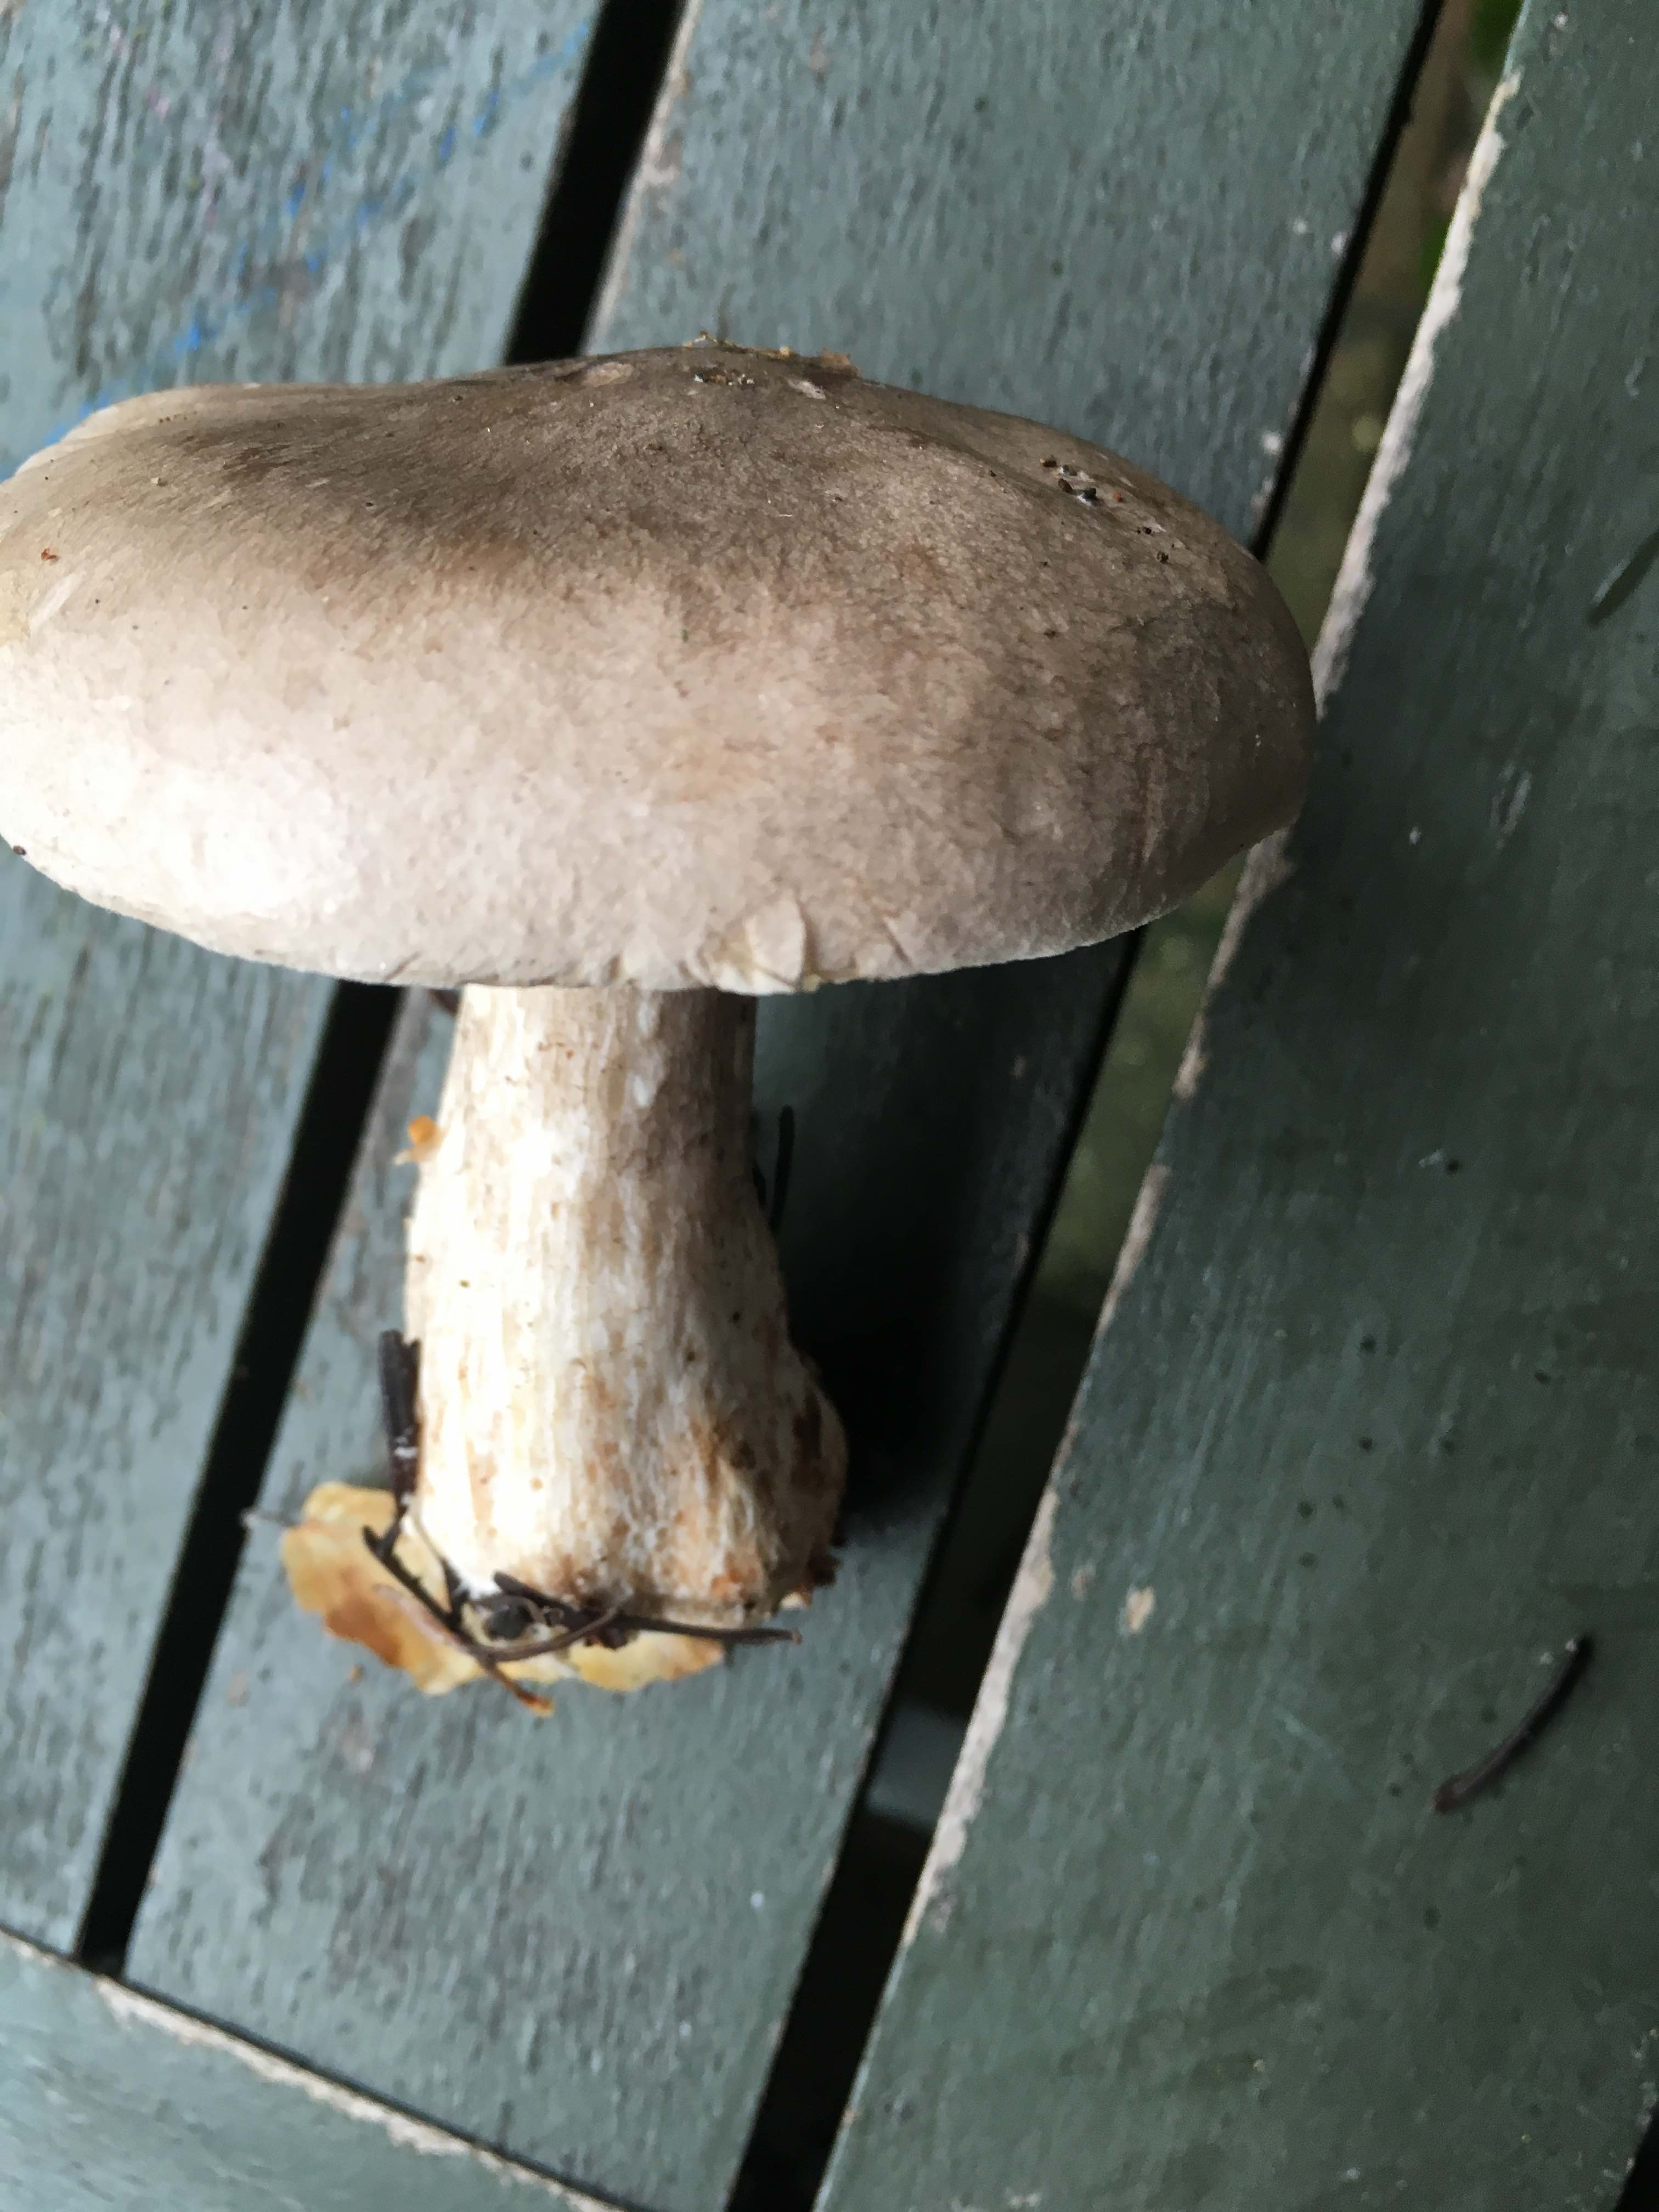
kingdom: Fungi
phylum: Basidiomycota
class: Agaricomycetes
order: Agaricales
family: Tricholomataceae
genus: Clitocybe
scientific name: Clitocybe nebularis
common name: tåge-tragthat
